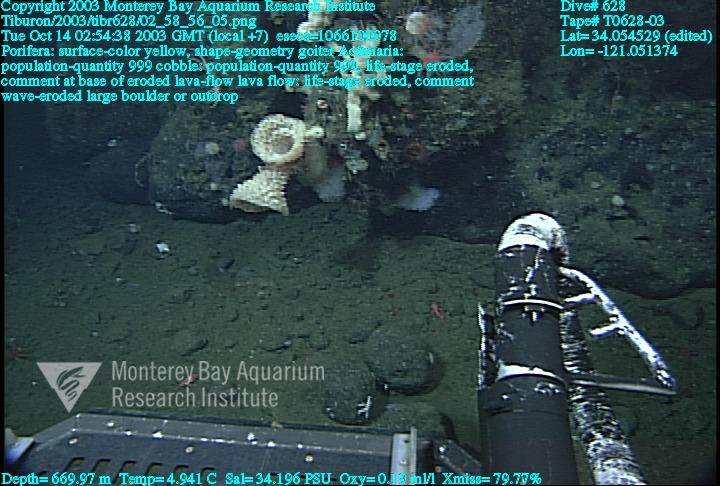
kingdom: Animalia
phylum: Porifera
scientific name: Porifera
